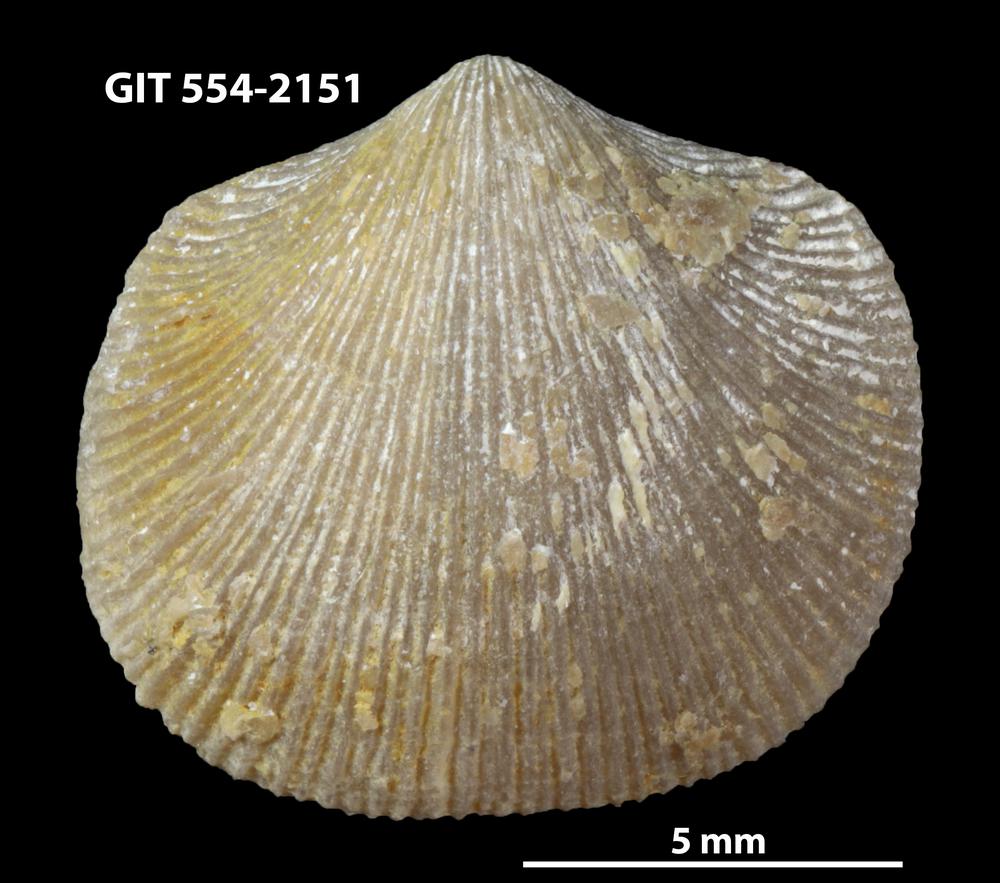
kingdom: Animalia
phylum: Brachiopoda
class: Rhynchonellata
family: Dalmanellidae
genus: Levenea
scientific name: Levenea Orthis canaliculata
